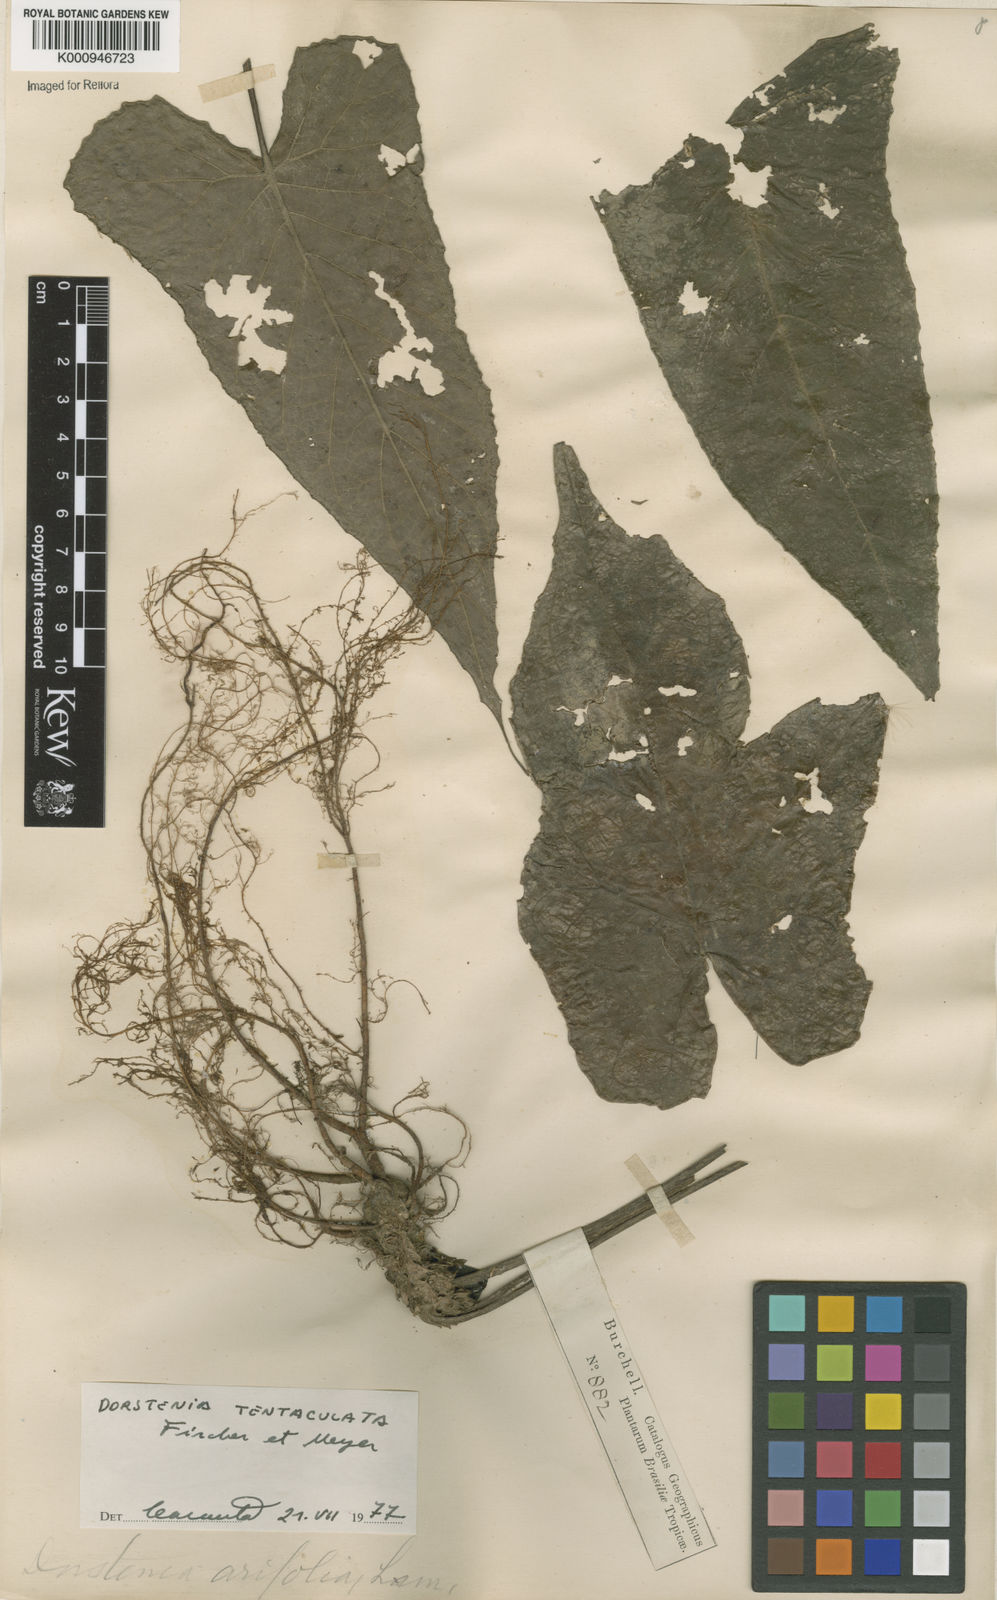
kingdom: Plantae
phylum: Tracheophyta
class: Magnoliopsida
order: Rosales
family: Moraceae
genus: Dorstenia
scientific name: Dorstenia tentaculata
